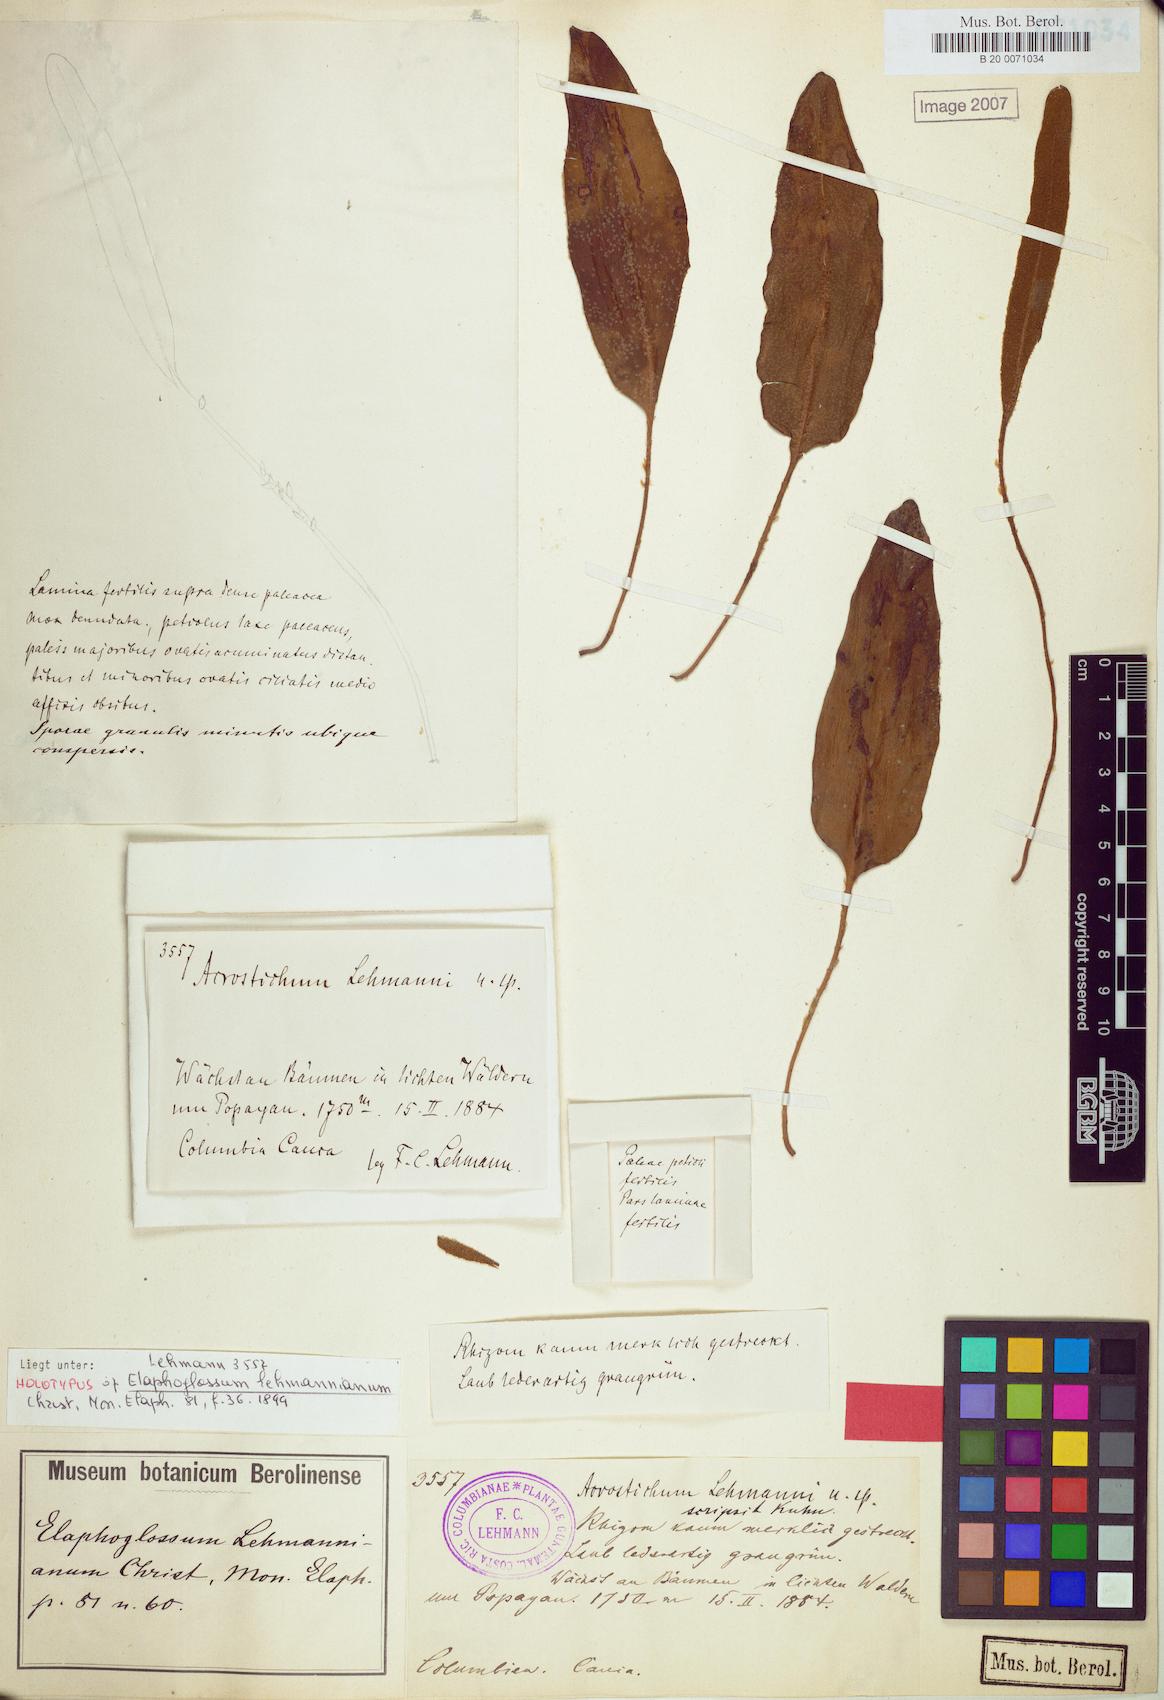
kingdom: Plantae
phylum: Tracheophyta
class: Polypodiopsida
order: Polypodiales
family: Dryopteridaceae
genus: Elaphoglossum
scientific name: Elaphoglossum lehmannianum
